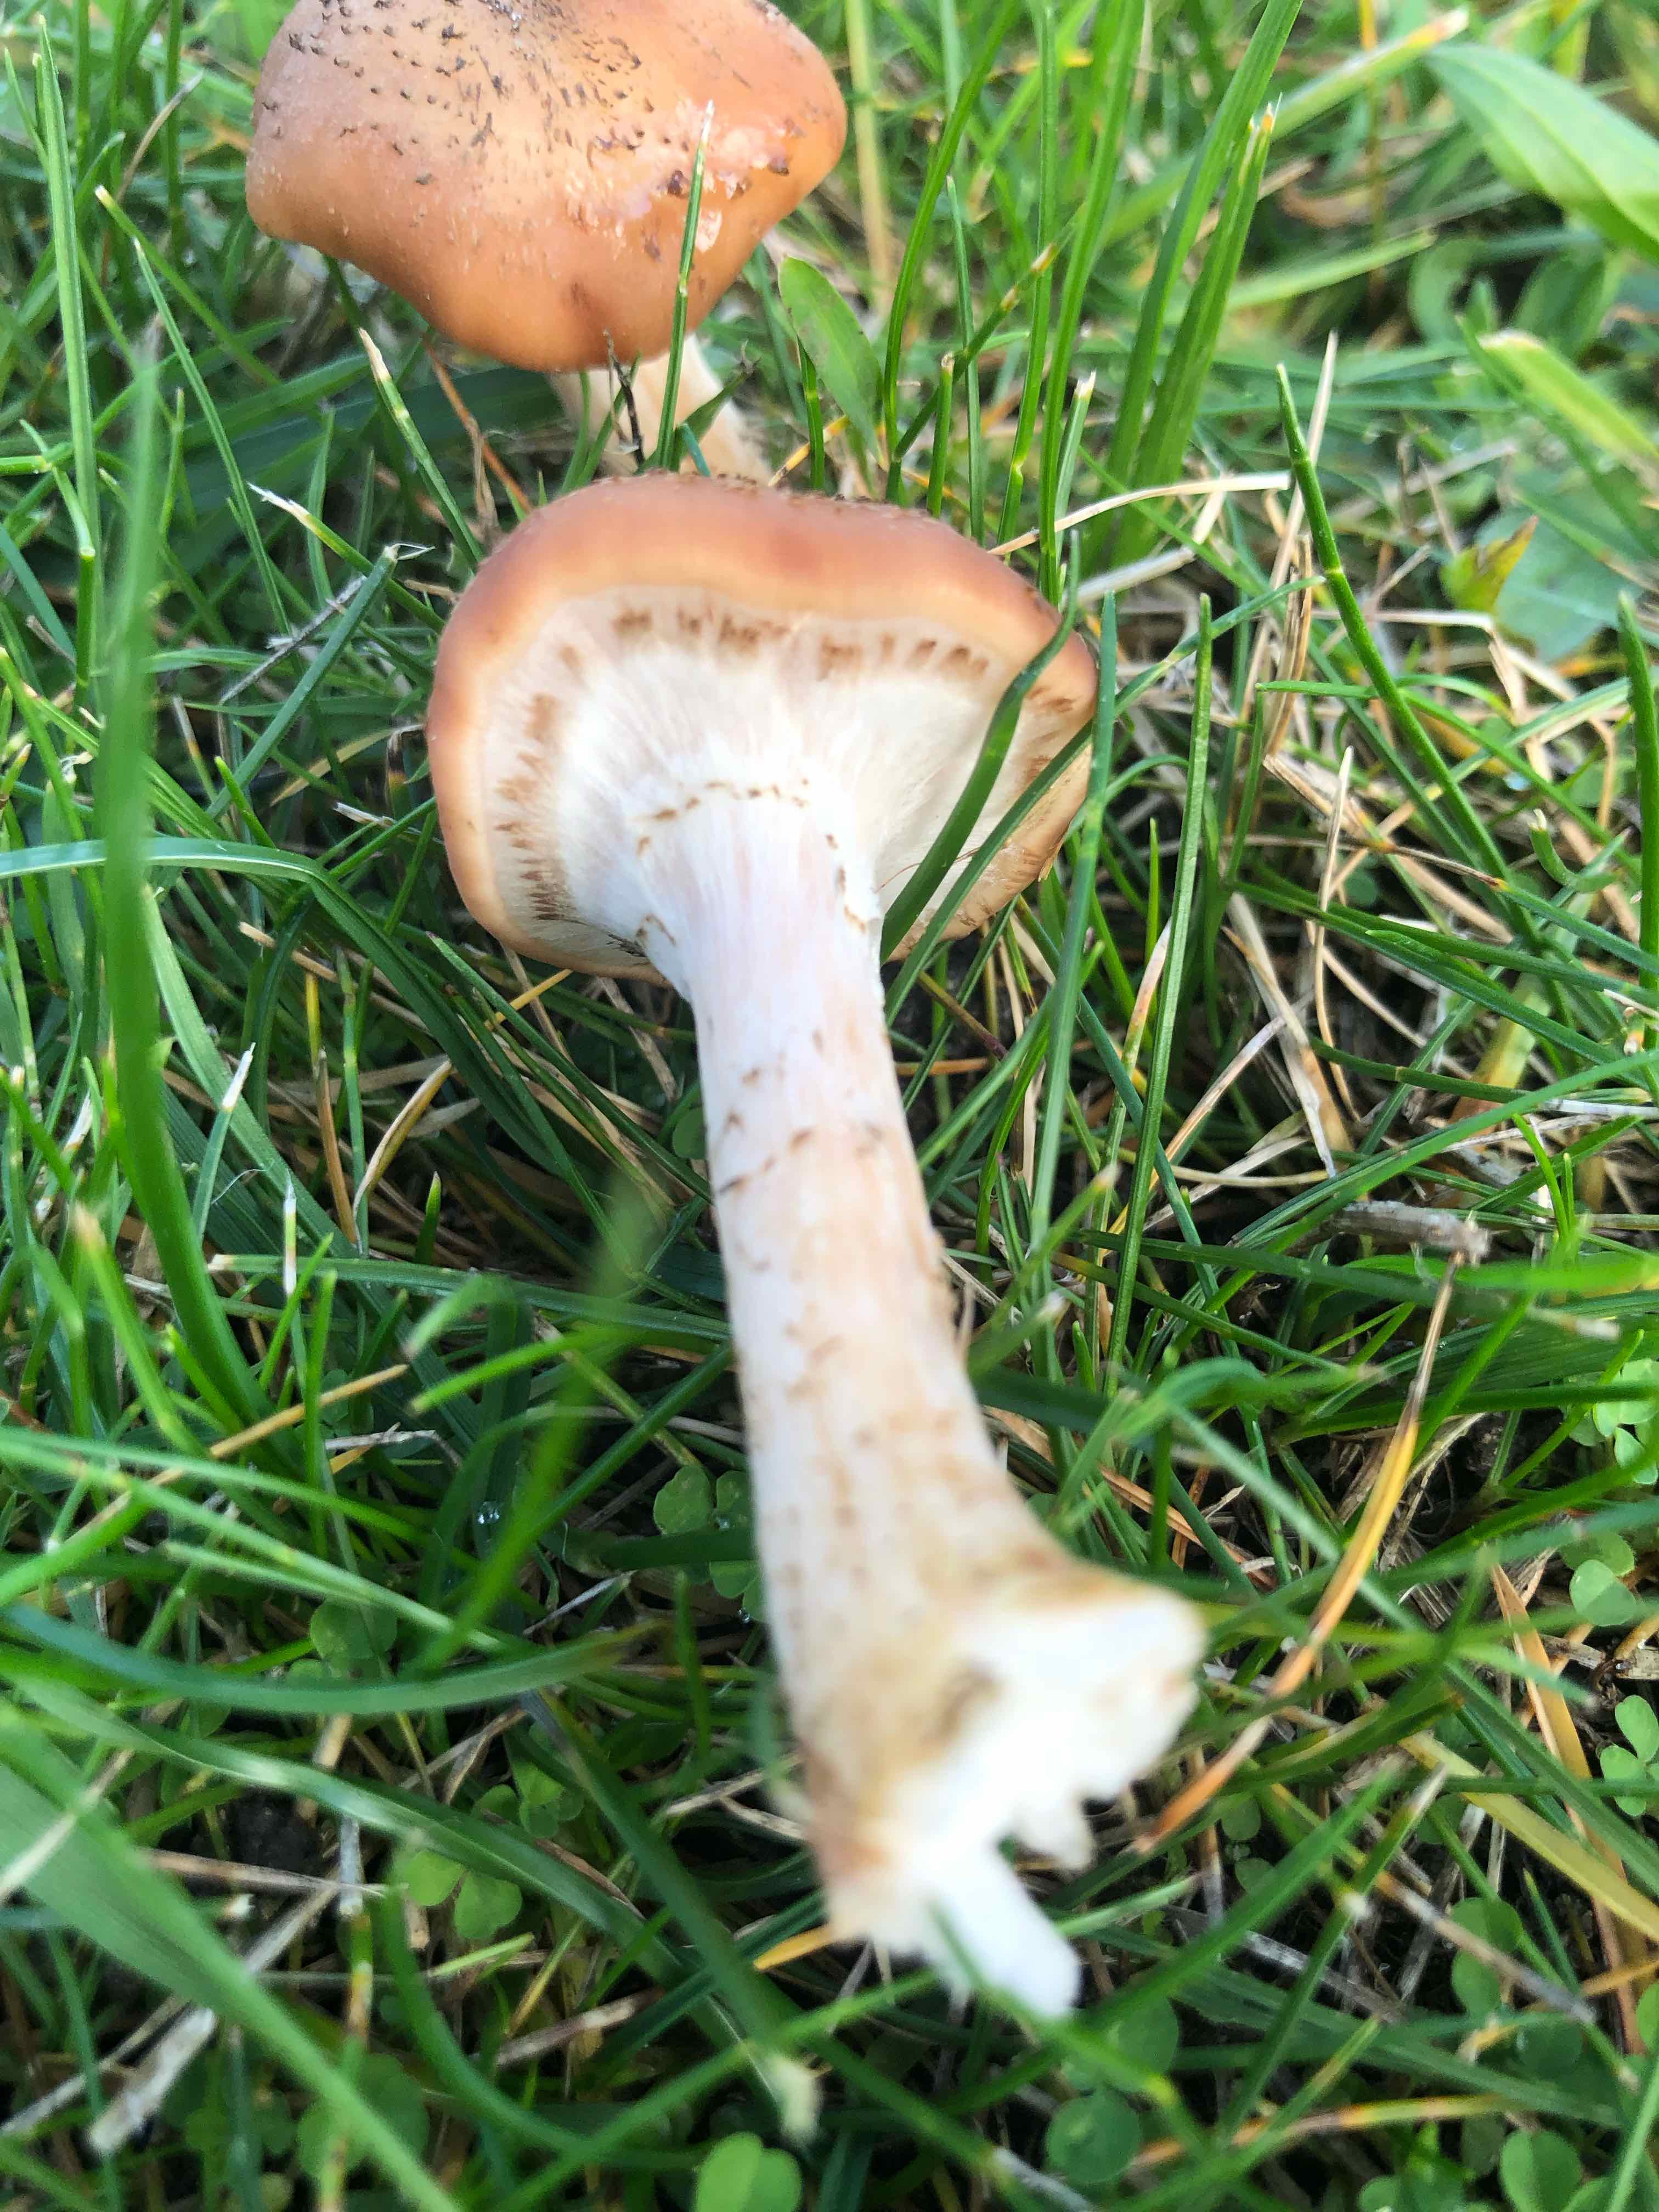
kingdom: Fungi
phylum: Basidiomycota
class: Agaricomycetes
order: Agaricales
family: Physalacriaceae
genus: Armillaria
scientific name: Armillaria ostoyae
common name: mørk honningsvamp
